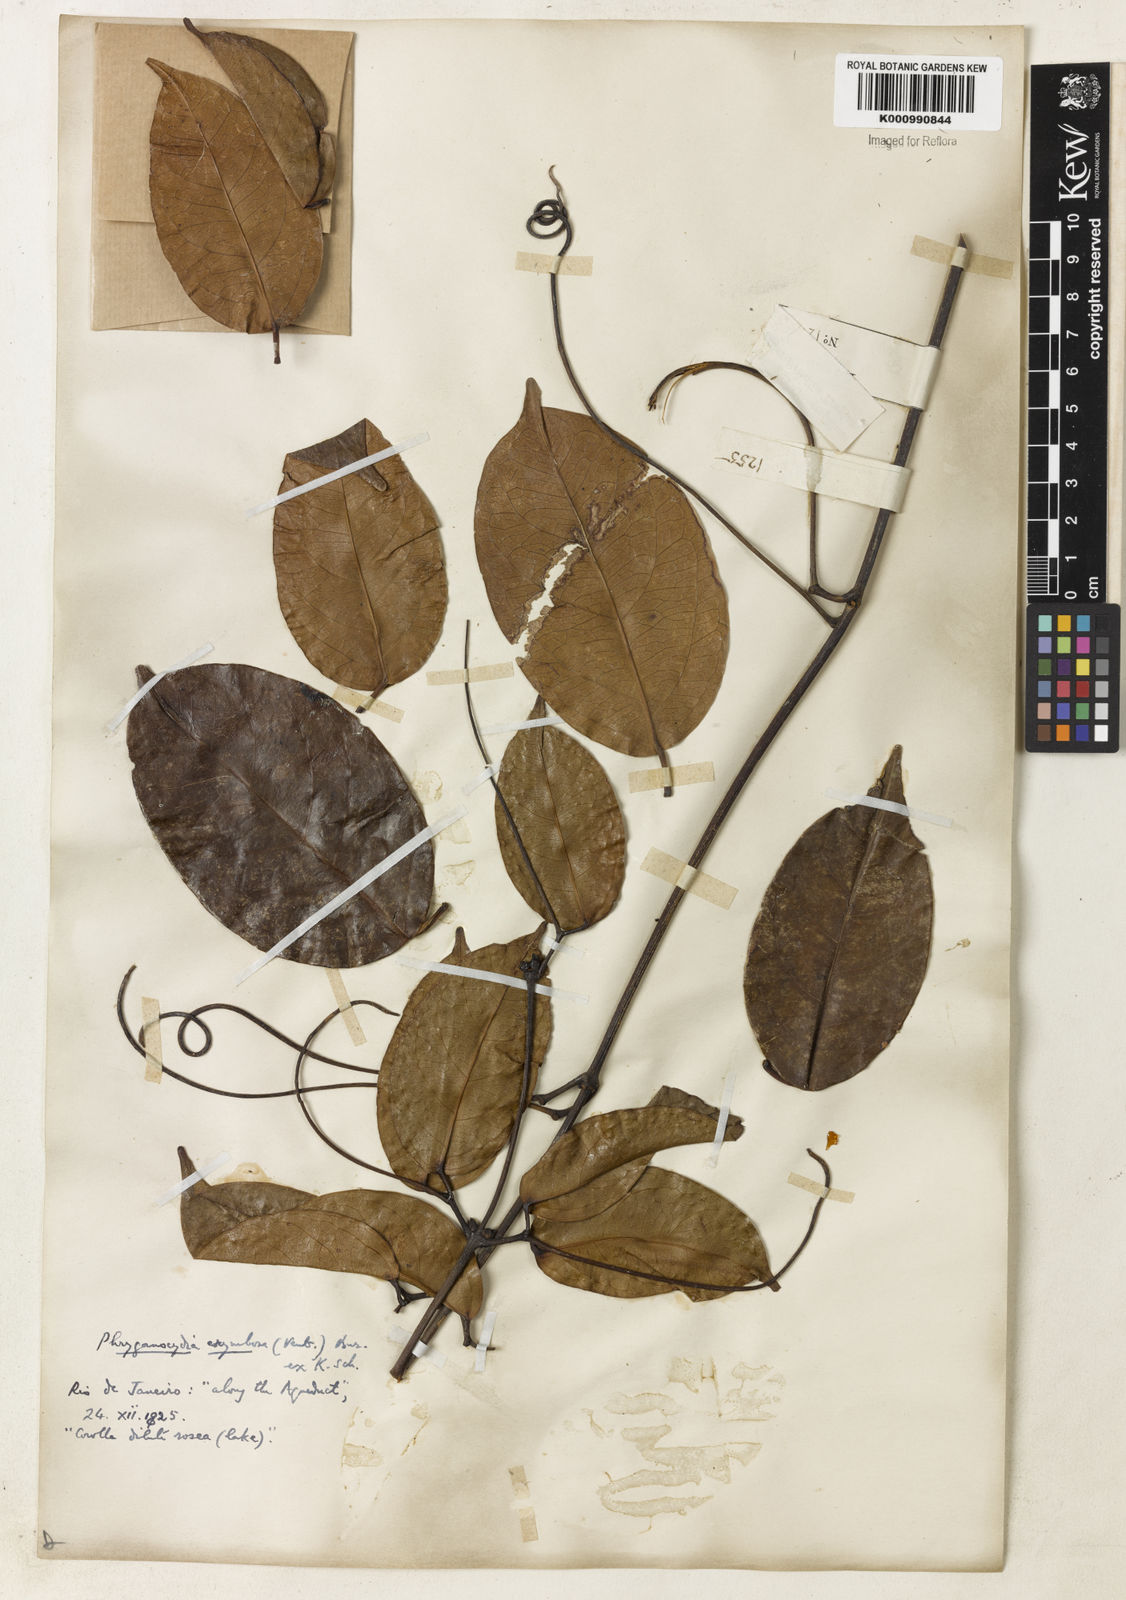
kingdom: Plantae
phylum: Tracheophyta
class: Magnoliopsida
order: Lamiales
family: Bignoniaceae
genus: Bignonia
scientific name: Bignonia corymbosa
